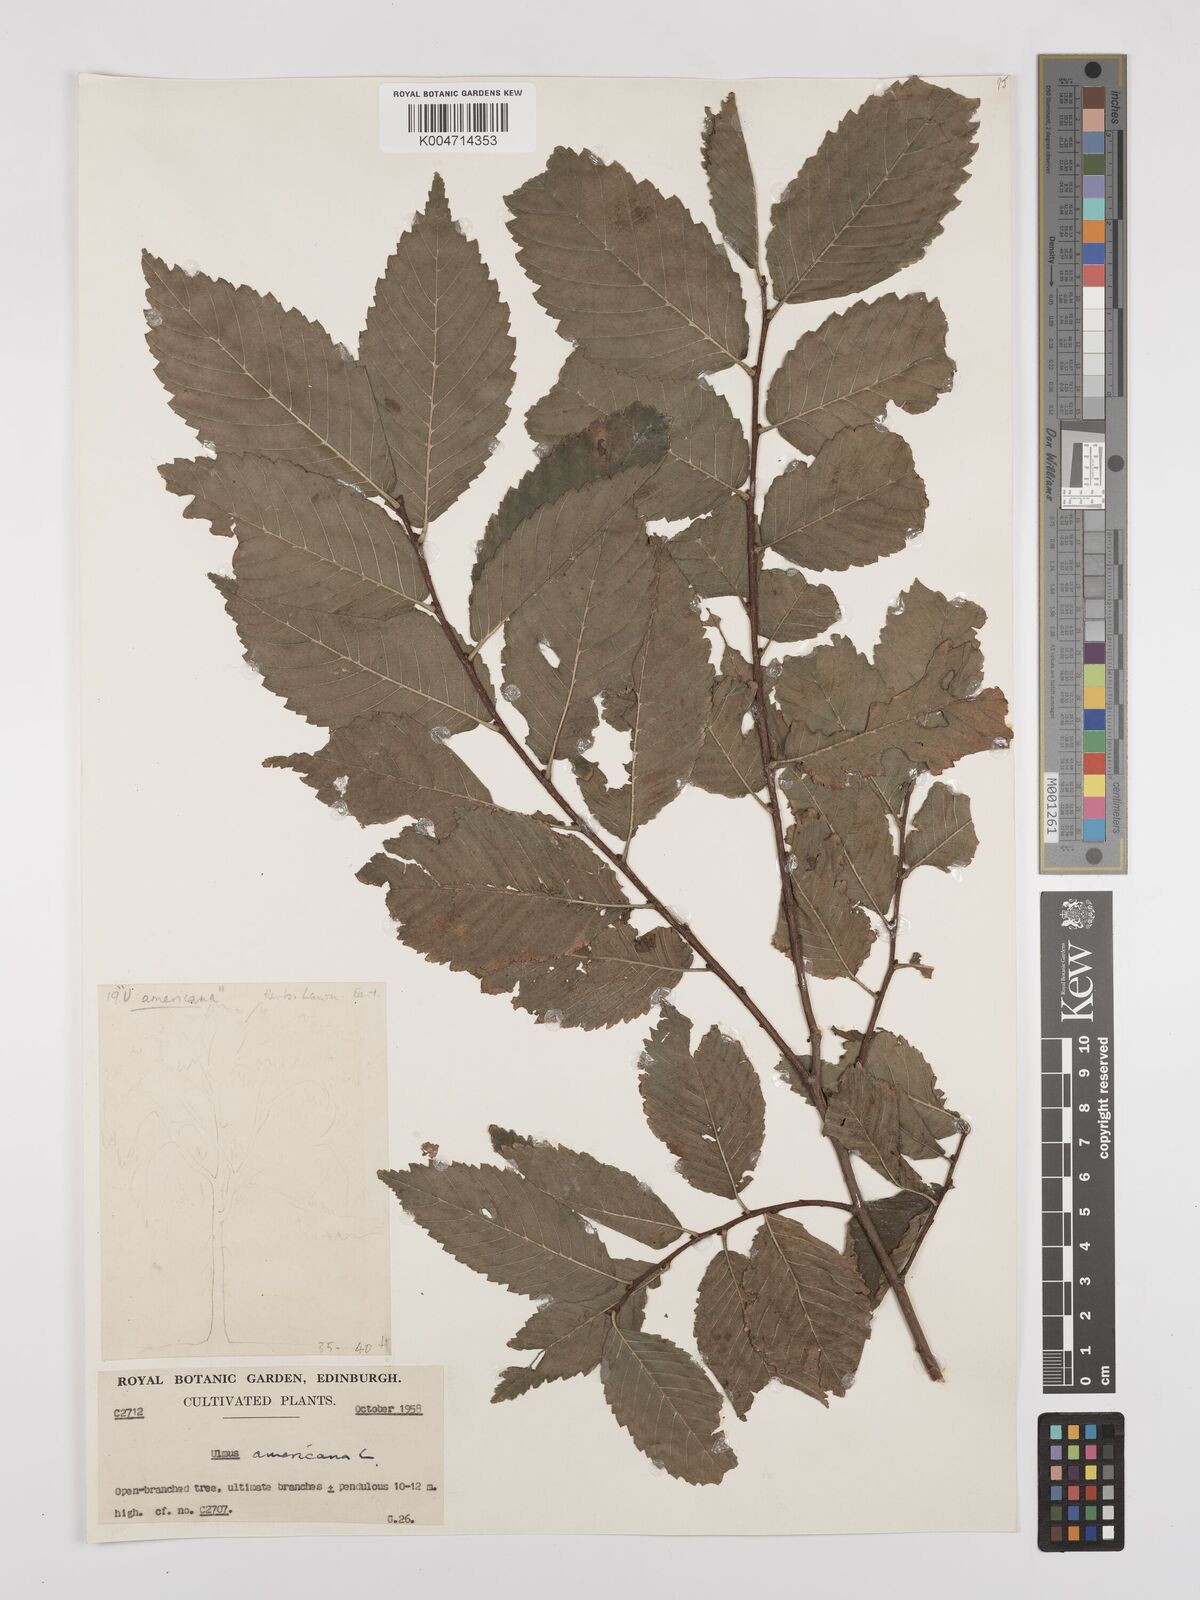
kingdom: Plantae
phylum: Tracheophyta
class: Magnoliopsida
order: Rosales
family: Ulmaceae
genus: Ulmus
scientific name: Ulmus americana
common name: American elm
